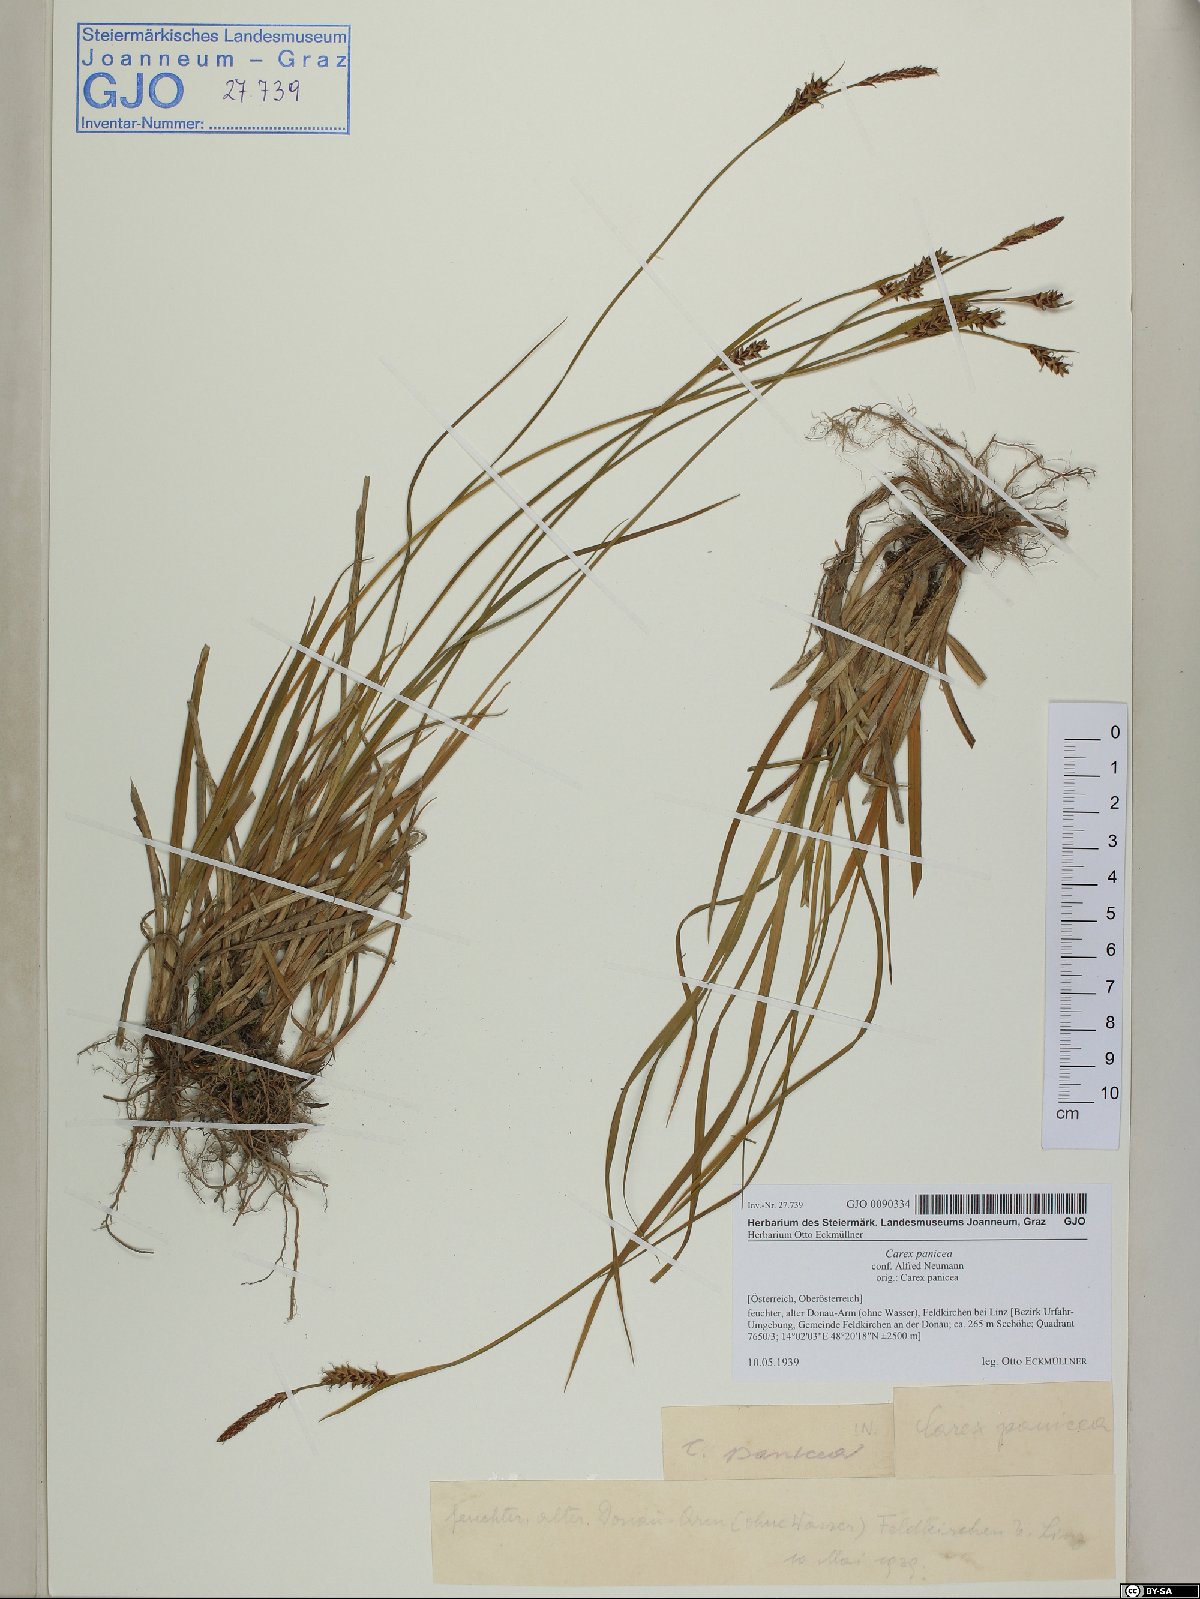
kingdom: Plantae
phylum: Tracheophyta
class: Liliopsida
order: Poales
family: Cyperaceae
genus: Carex
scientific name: Carex panicea
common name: Carnation sedge
